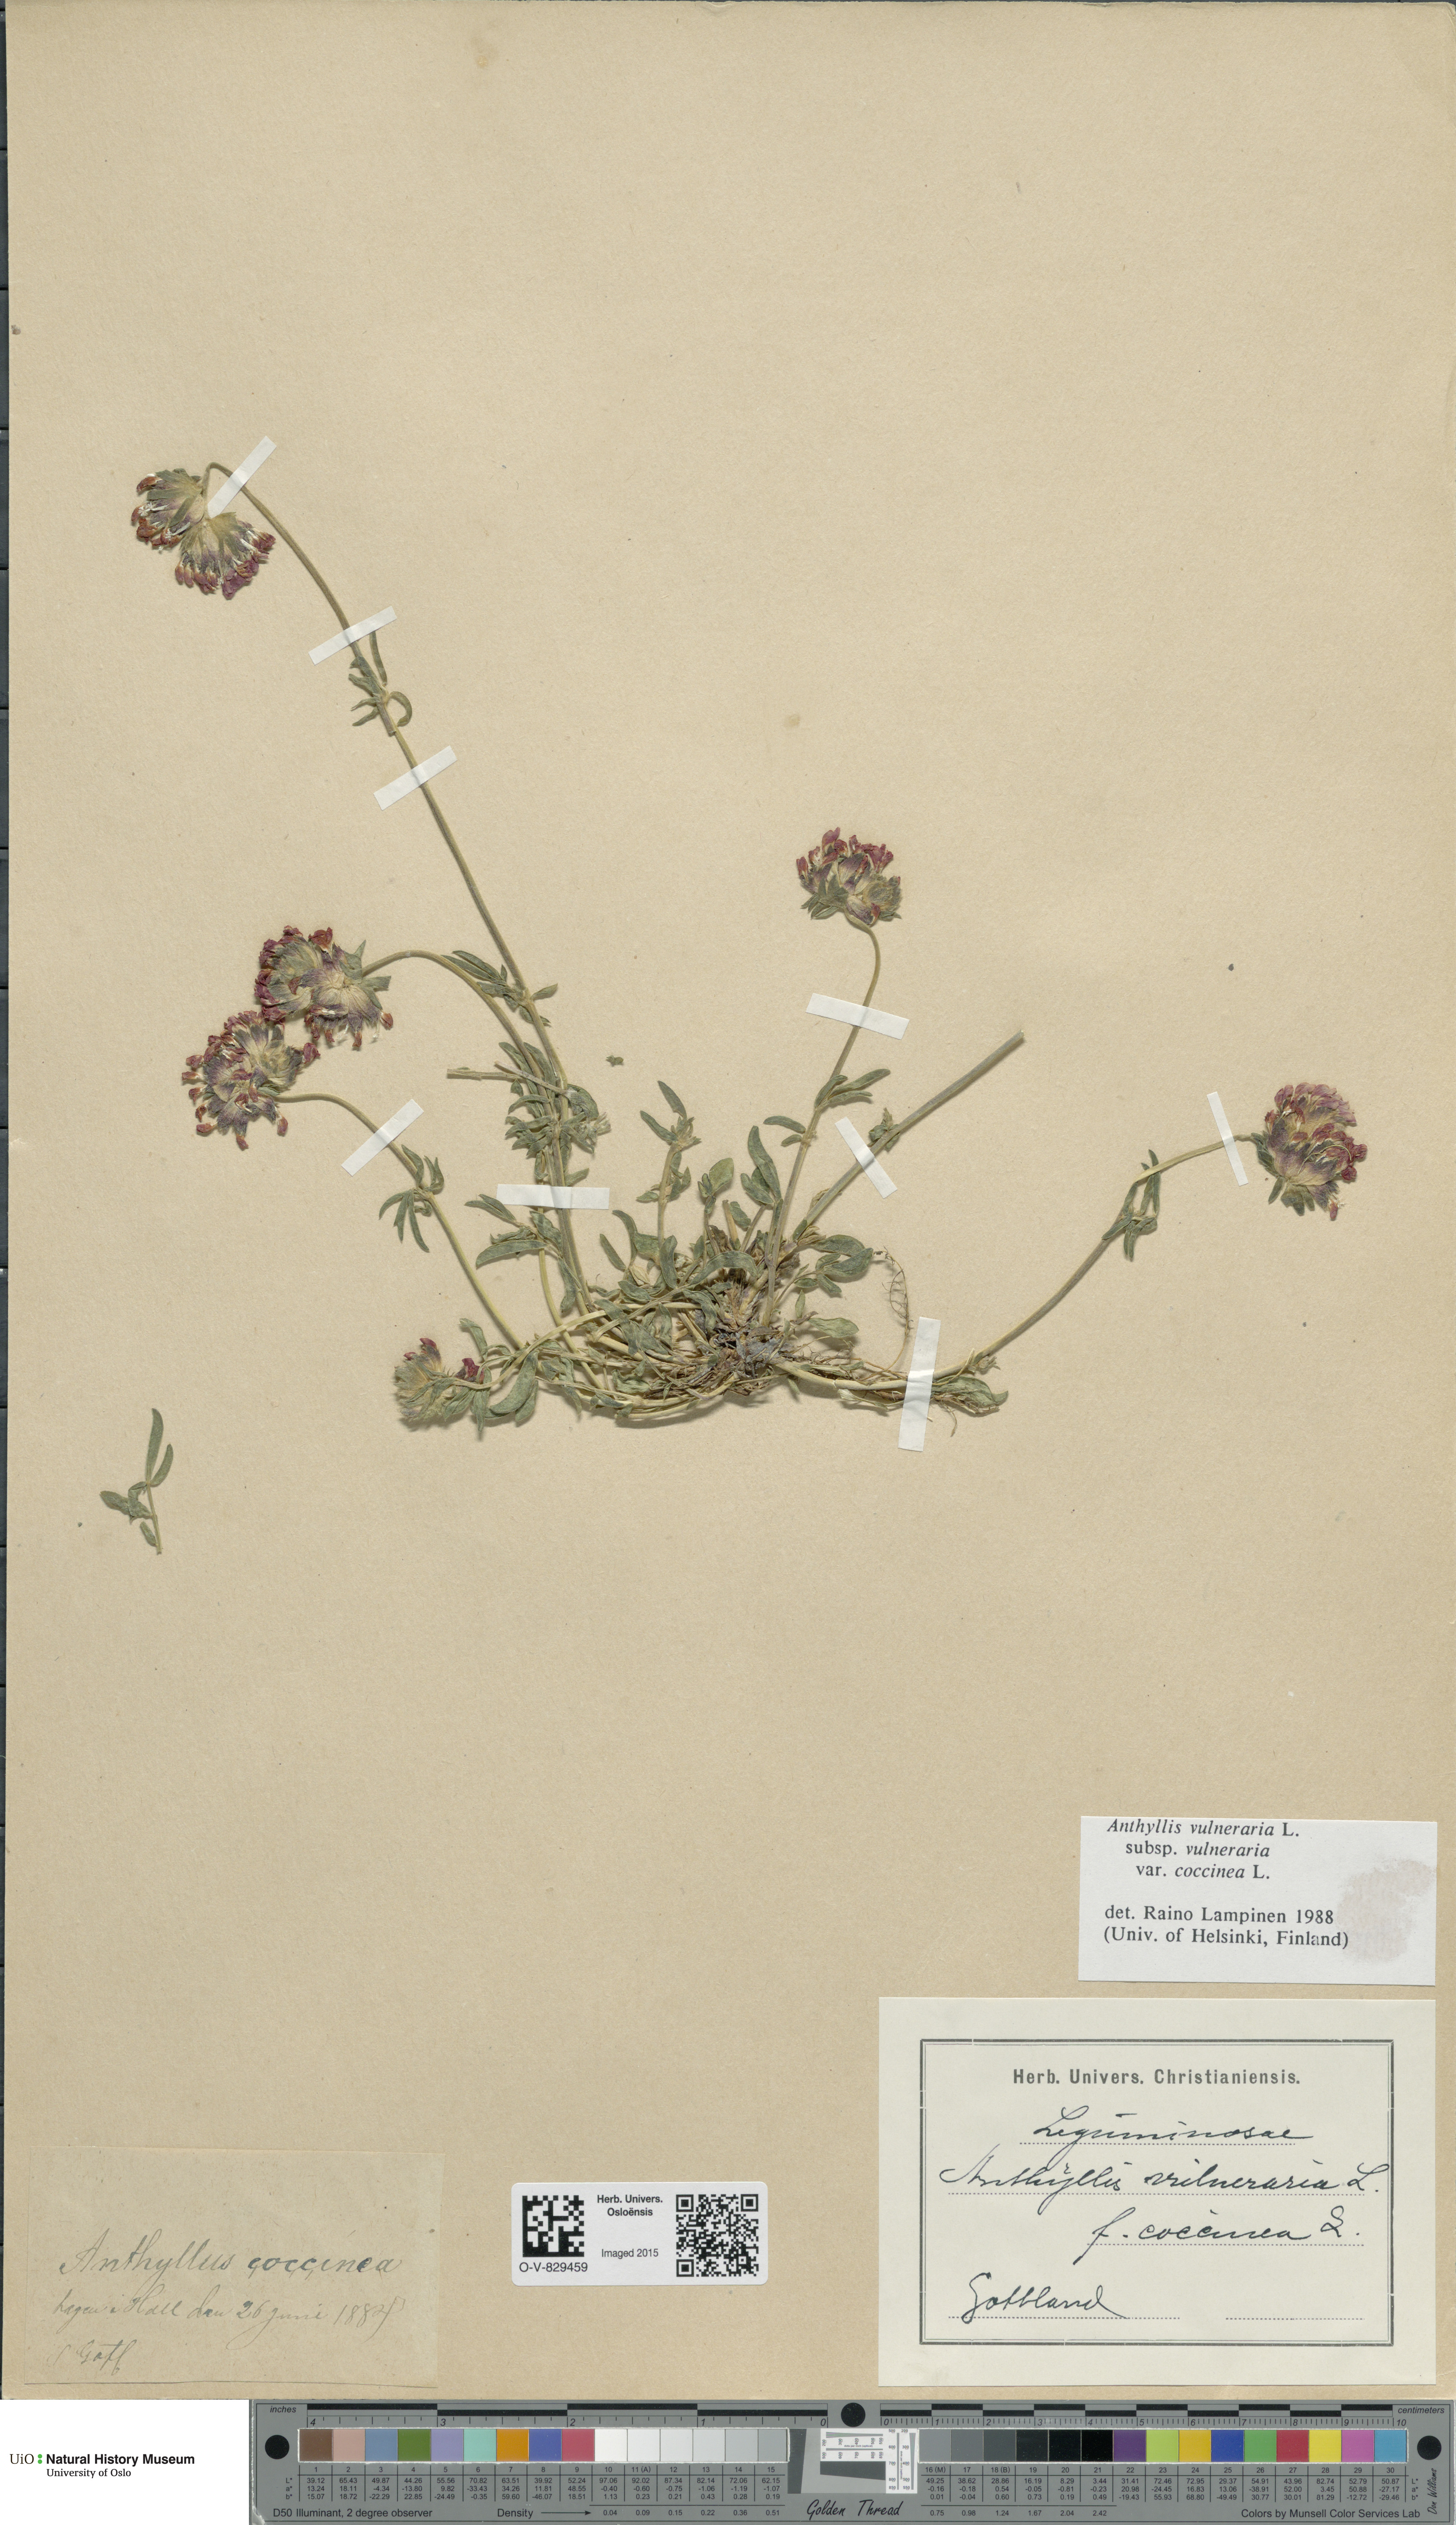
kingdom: Plantae
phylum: Tracheophyta
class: Magnoliopsida
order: Fabales
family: Fabaceae
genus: Anthyllis
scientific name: Anthyllis vulneraria
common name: Kidney vetch
